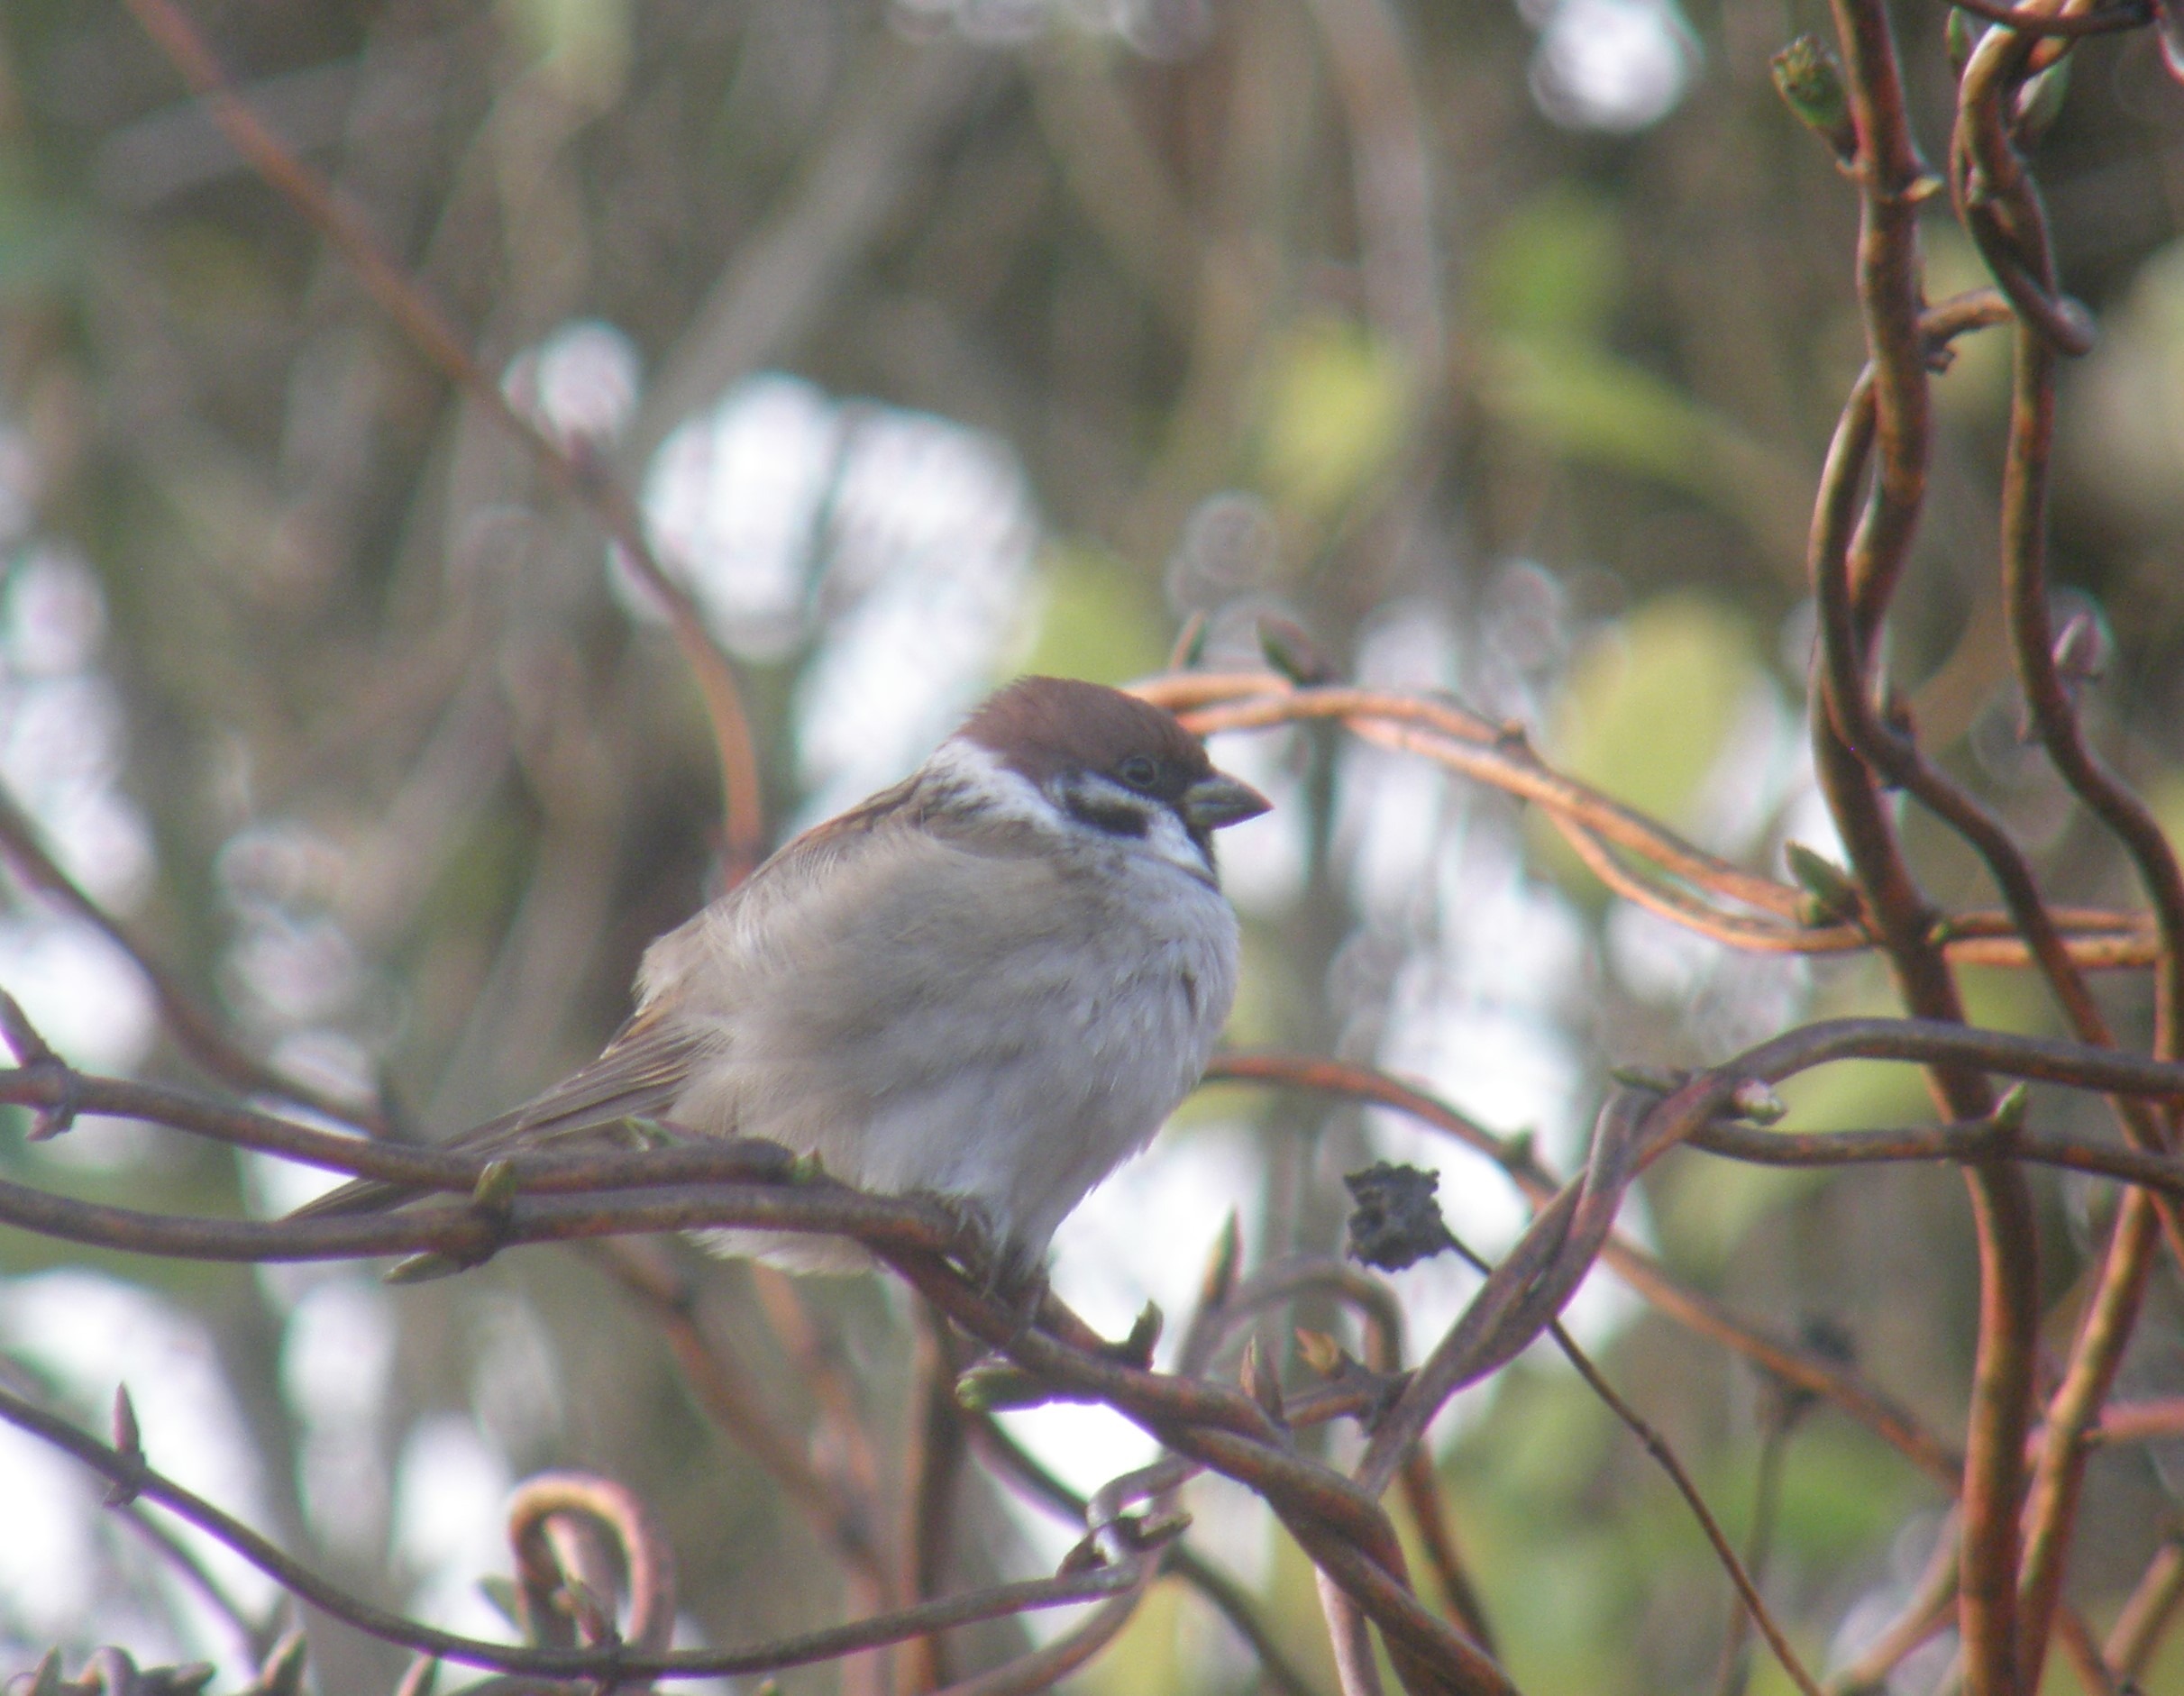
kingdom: Animalia
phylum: Chordata
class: Aves
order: Passeriformes
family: Passeridae
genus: Passer
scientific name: Passer montanus
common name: Skovspurv
